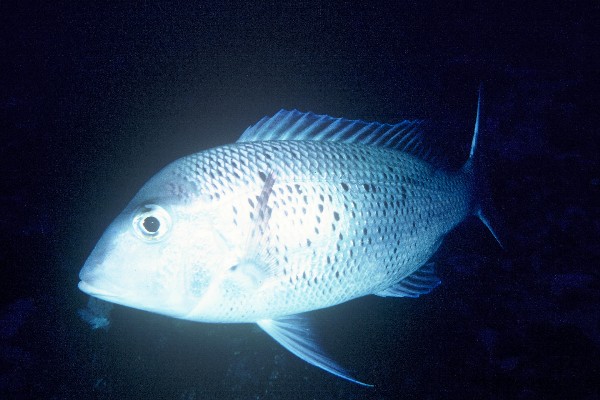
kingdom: Animalia
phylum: Chordata
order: Perciformes
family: Lethrinidae
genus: Gymnocranius
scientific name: Gymnocranius euanus
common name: Japanese large-eye bream
